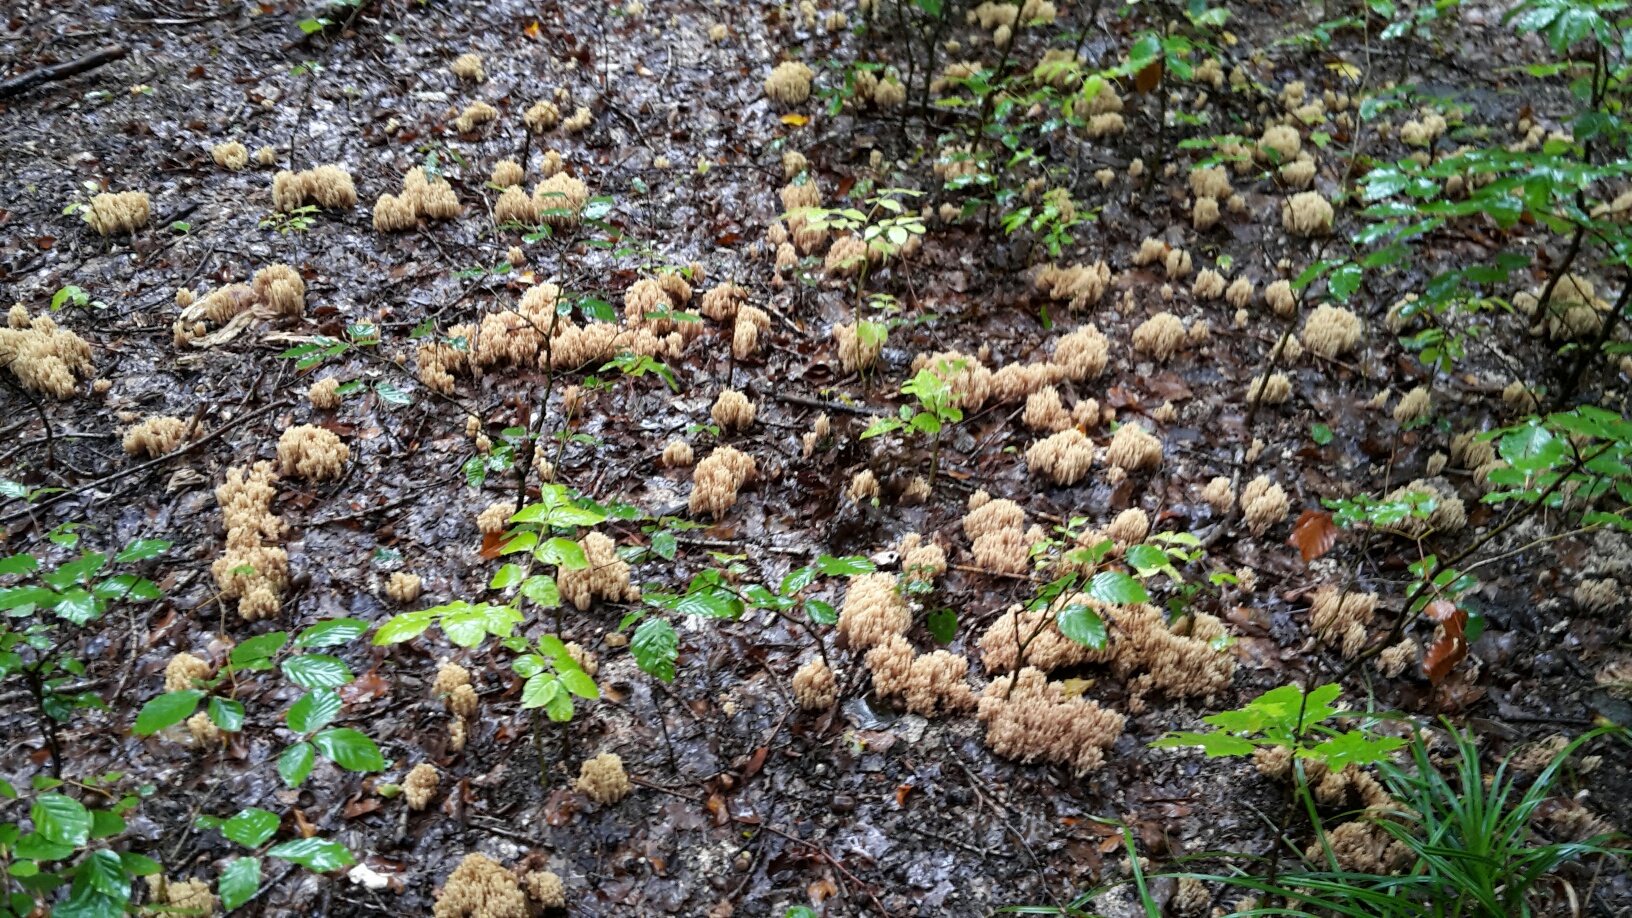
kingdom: Fungi
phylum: Basidiomycota
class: Agaricomycetes
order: Gomphales
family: Gomphaceae
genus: Ramaria
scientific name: Ramaria stricta
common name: rank koralsvamp
